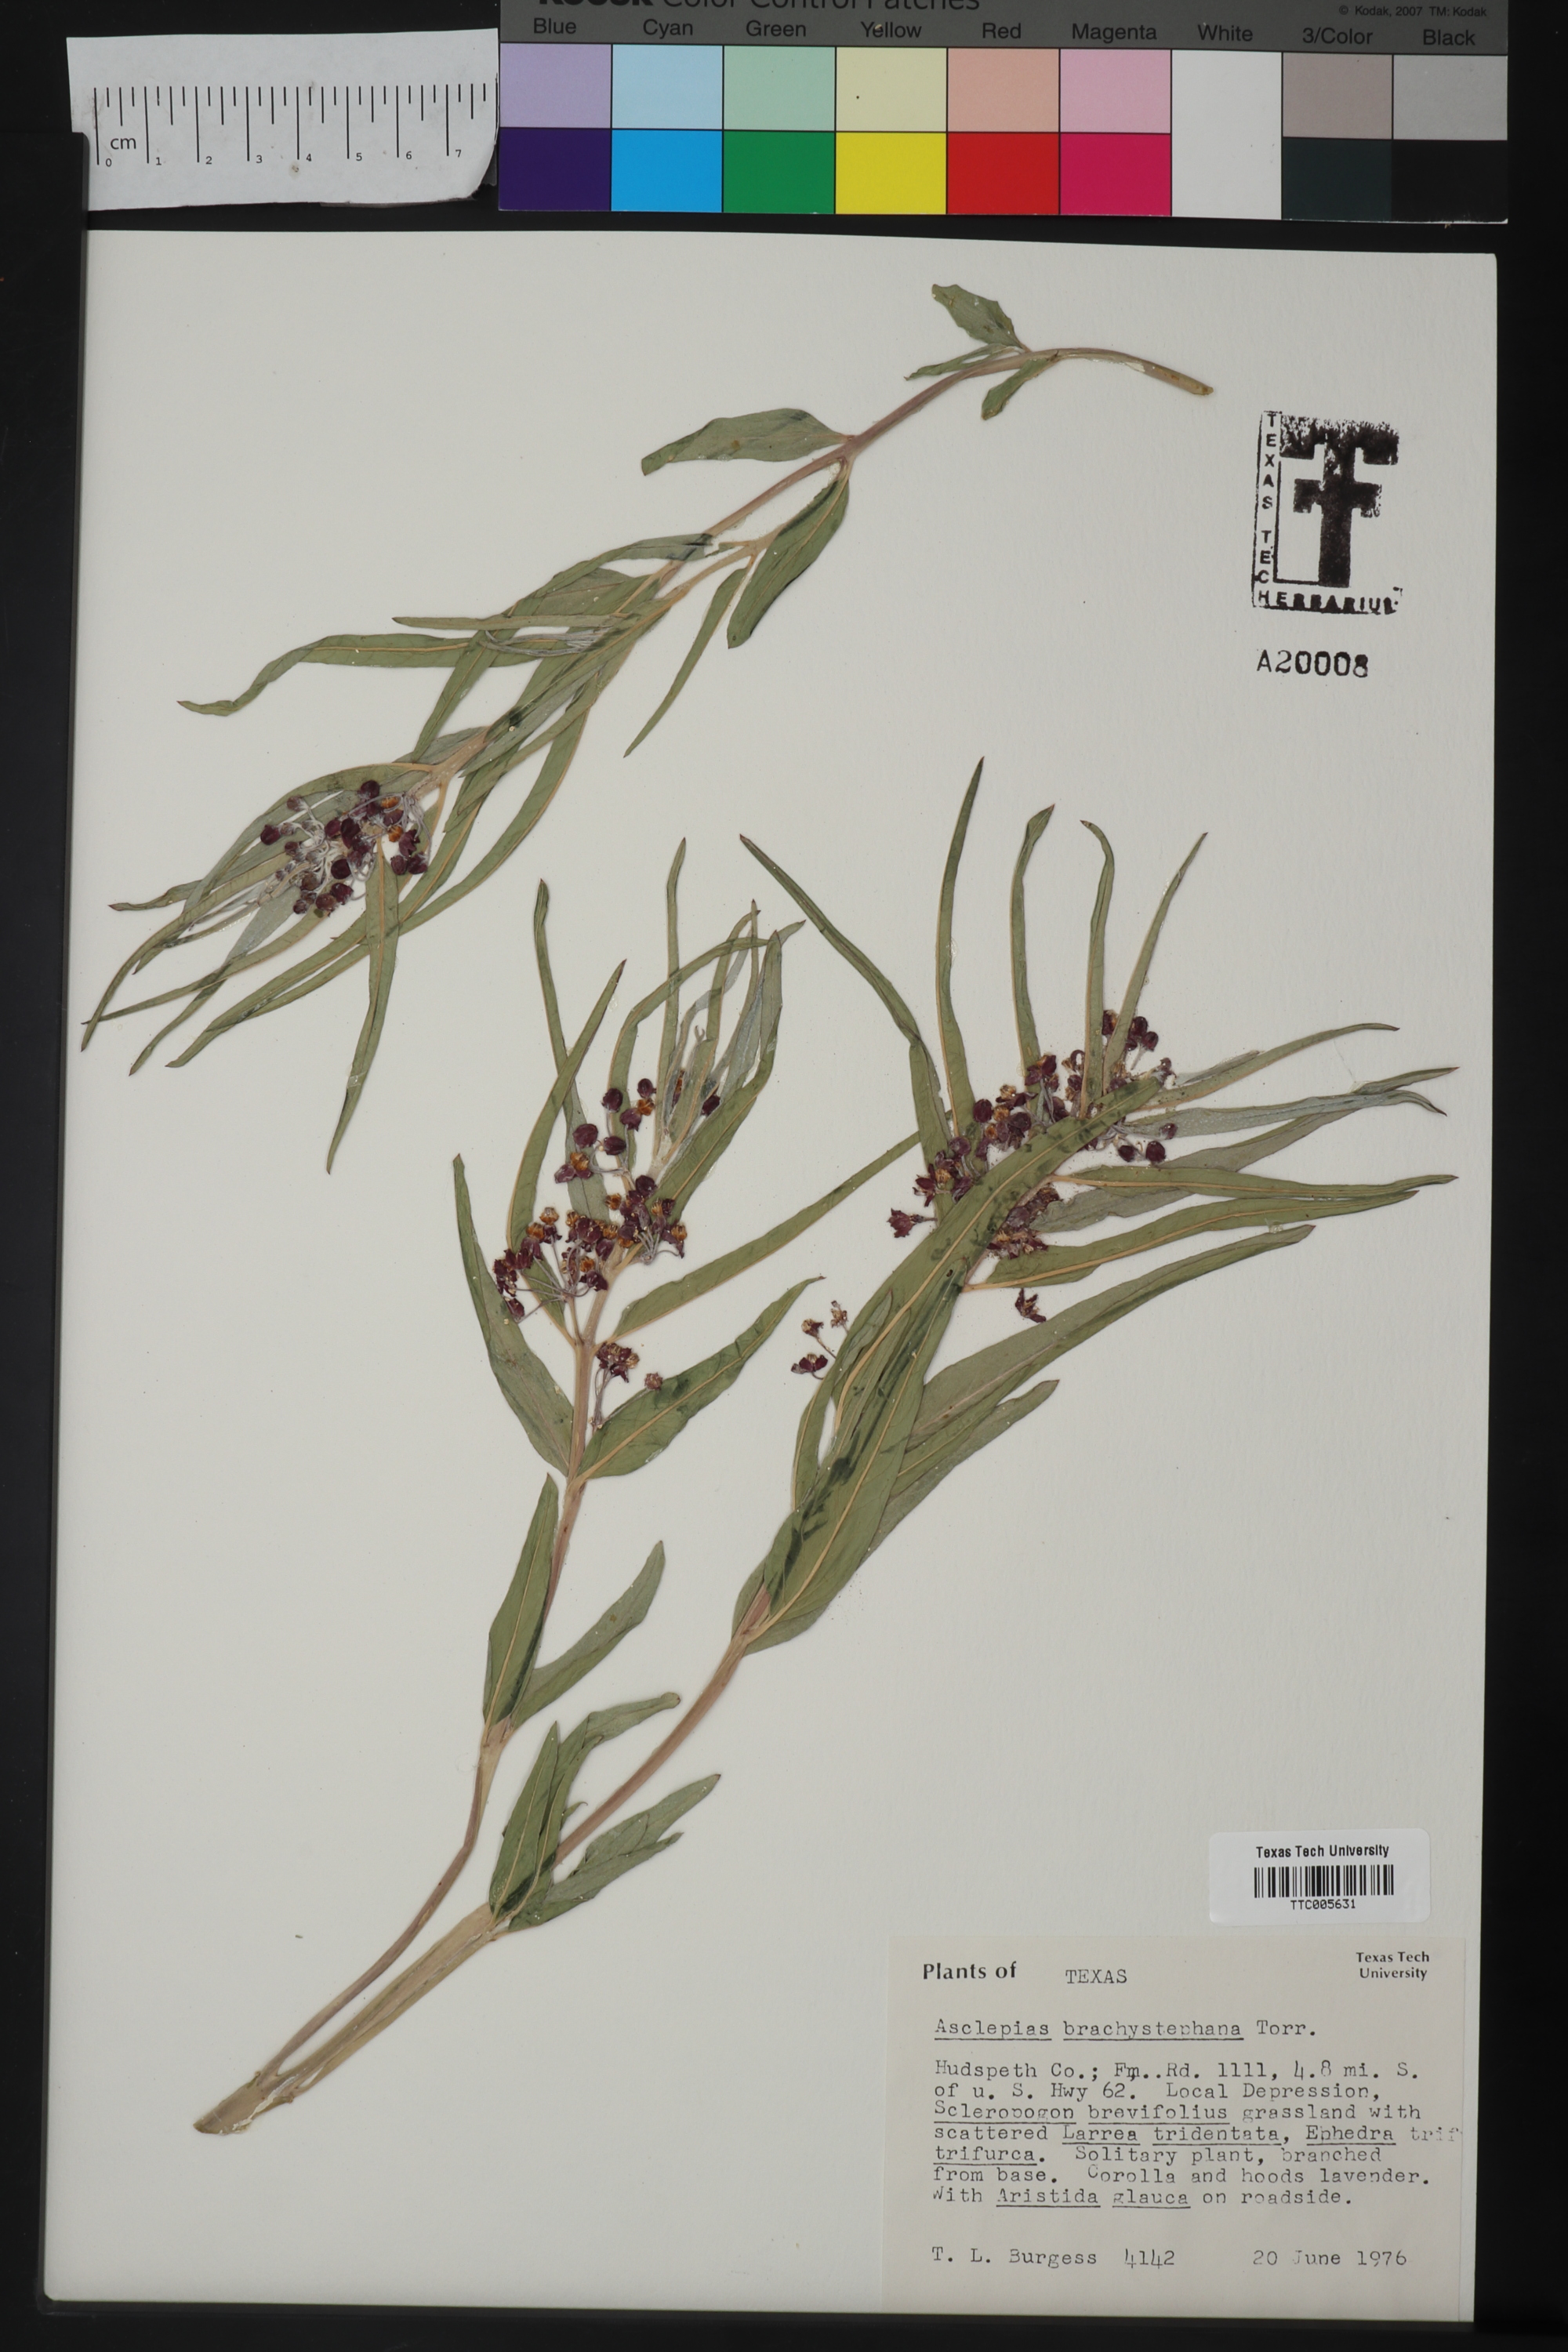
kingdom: Plantae
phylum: Tracheophyta
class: Magnoliopsida
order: Gentianales
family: Apocynaceae
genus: Asclepias
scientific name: Asclepias brachystephana
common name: Shortcrown milkweed
